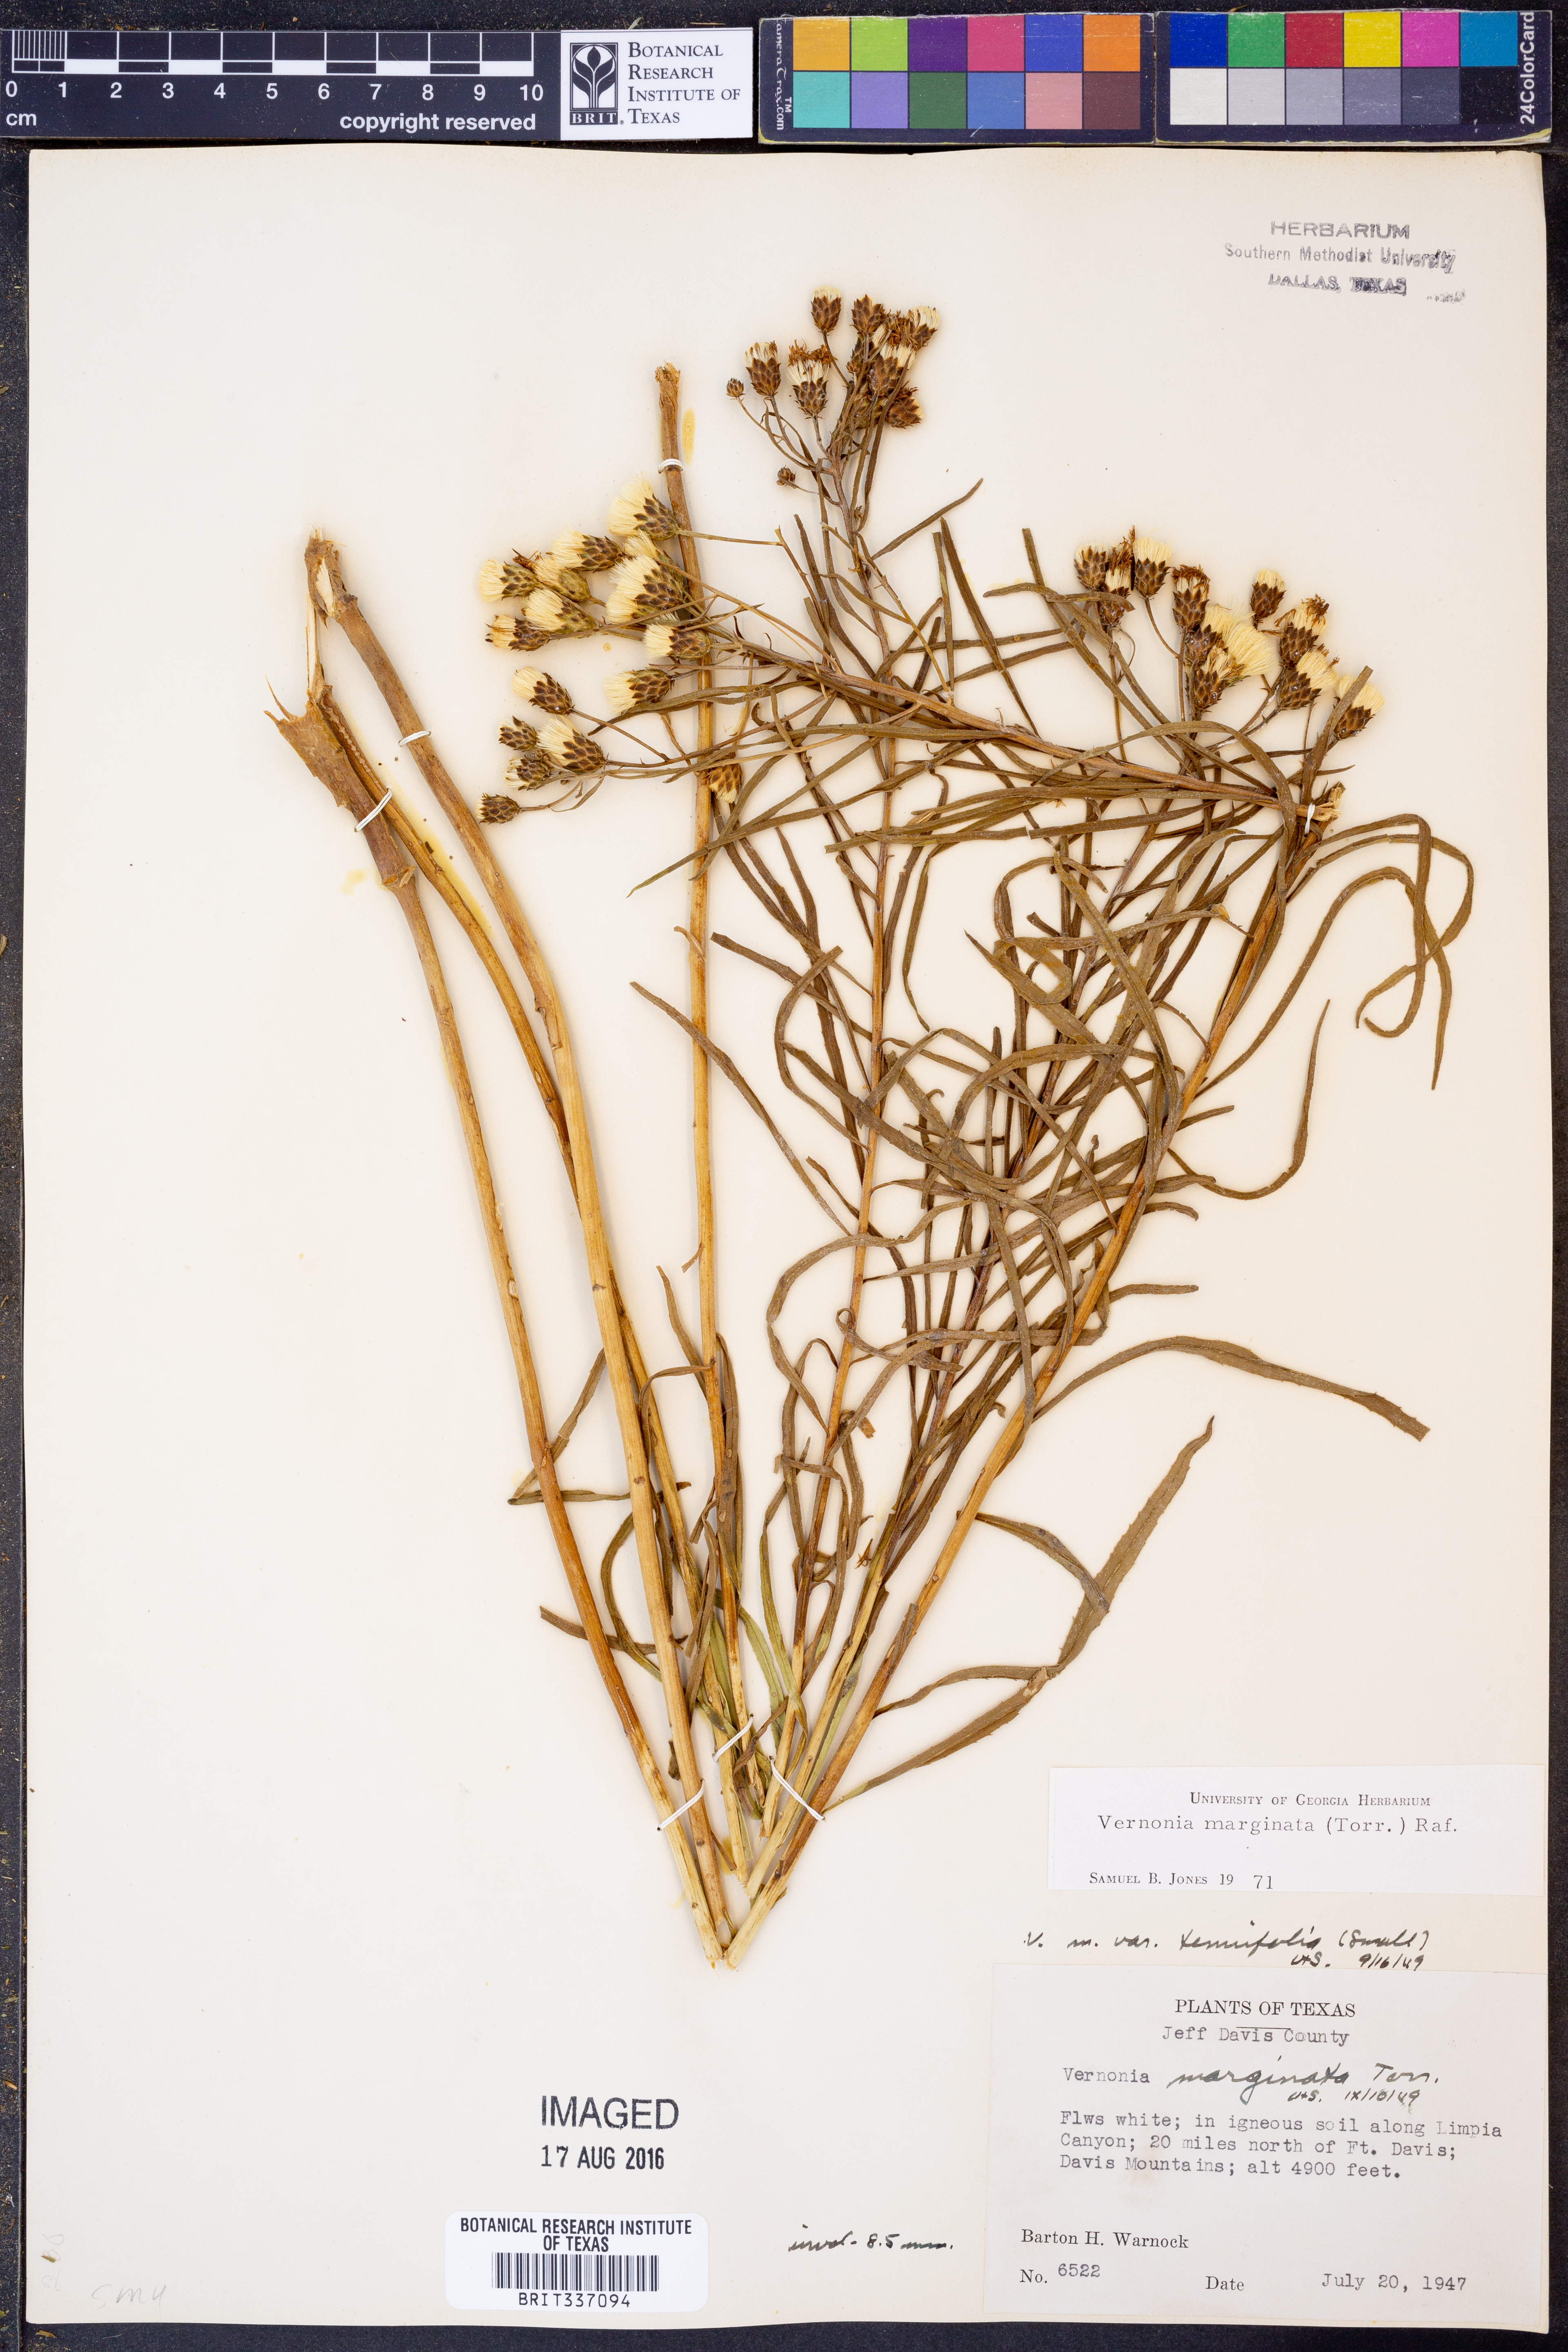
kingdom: Plantae
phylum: Tracheophyta
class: Magnoliopsida
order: Asterales
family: Asteraceae
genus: Vernonia
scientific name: Vernonia marginata
